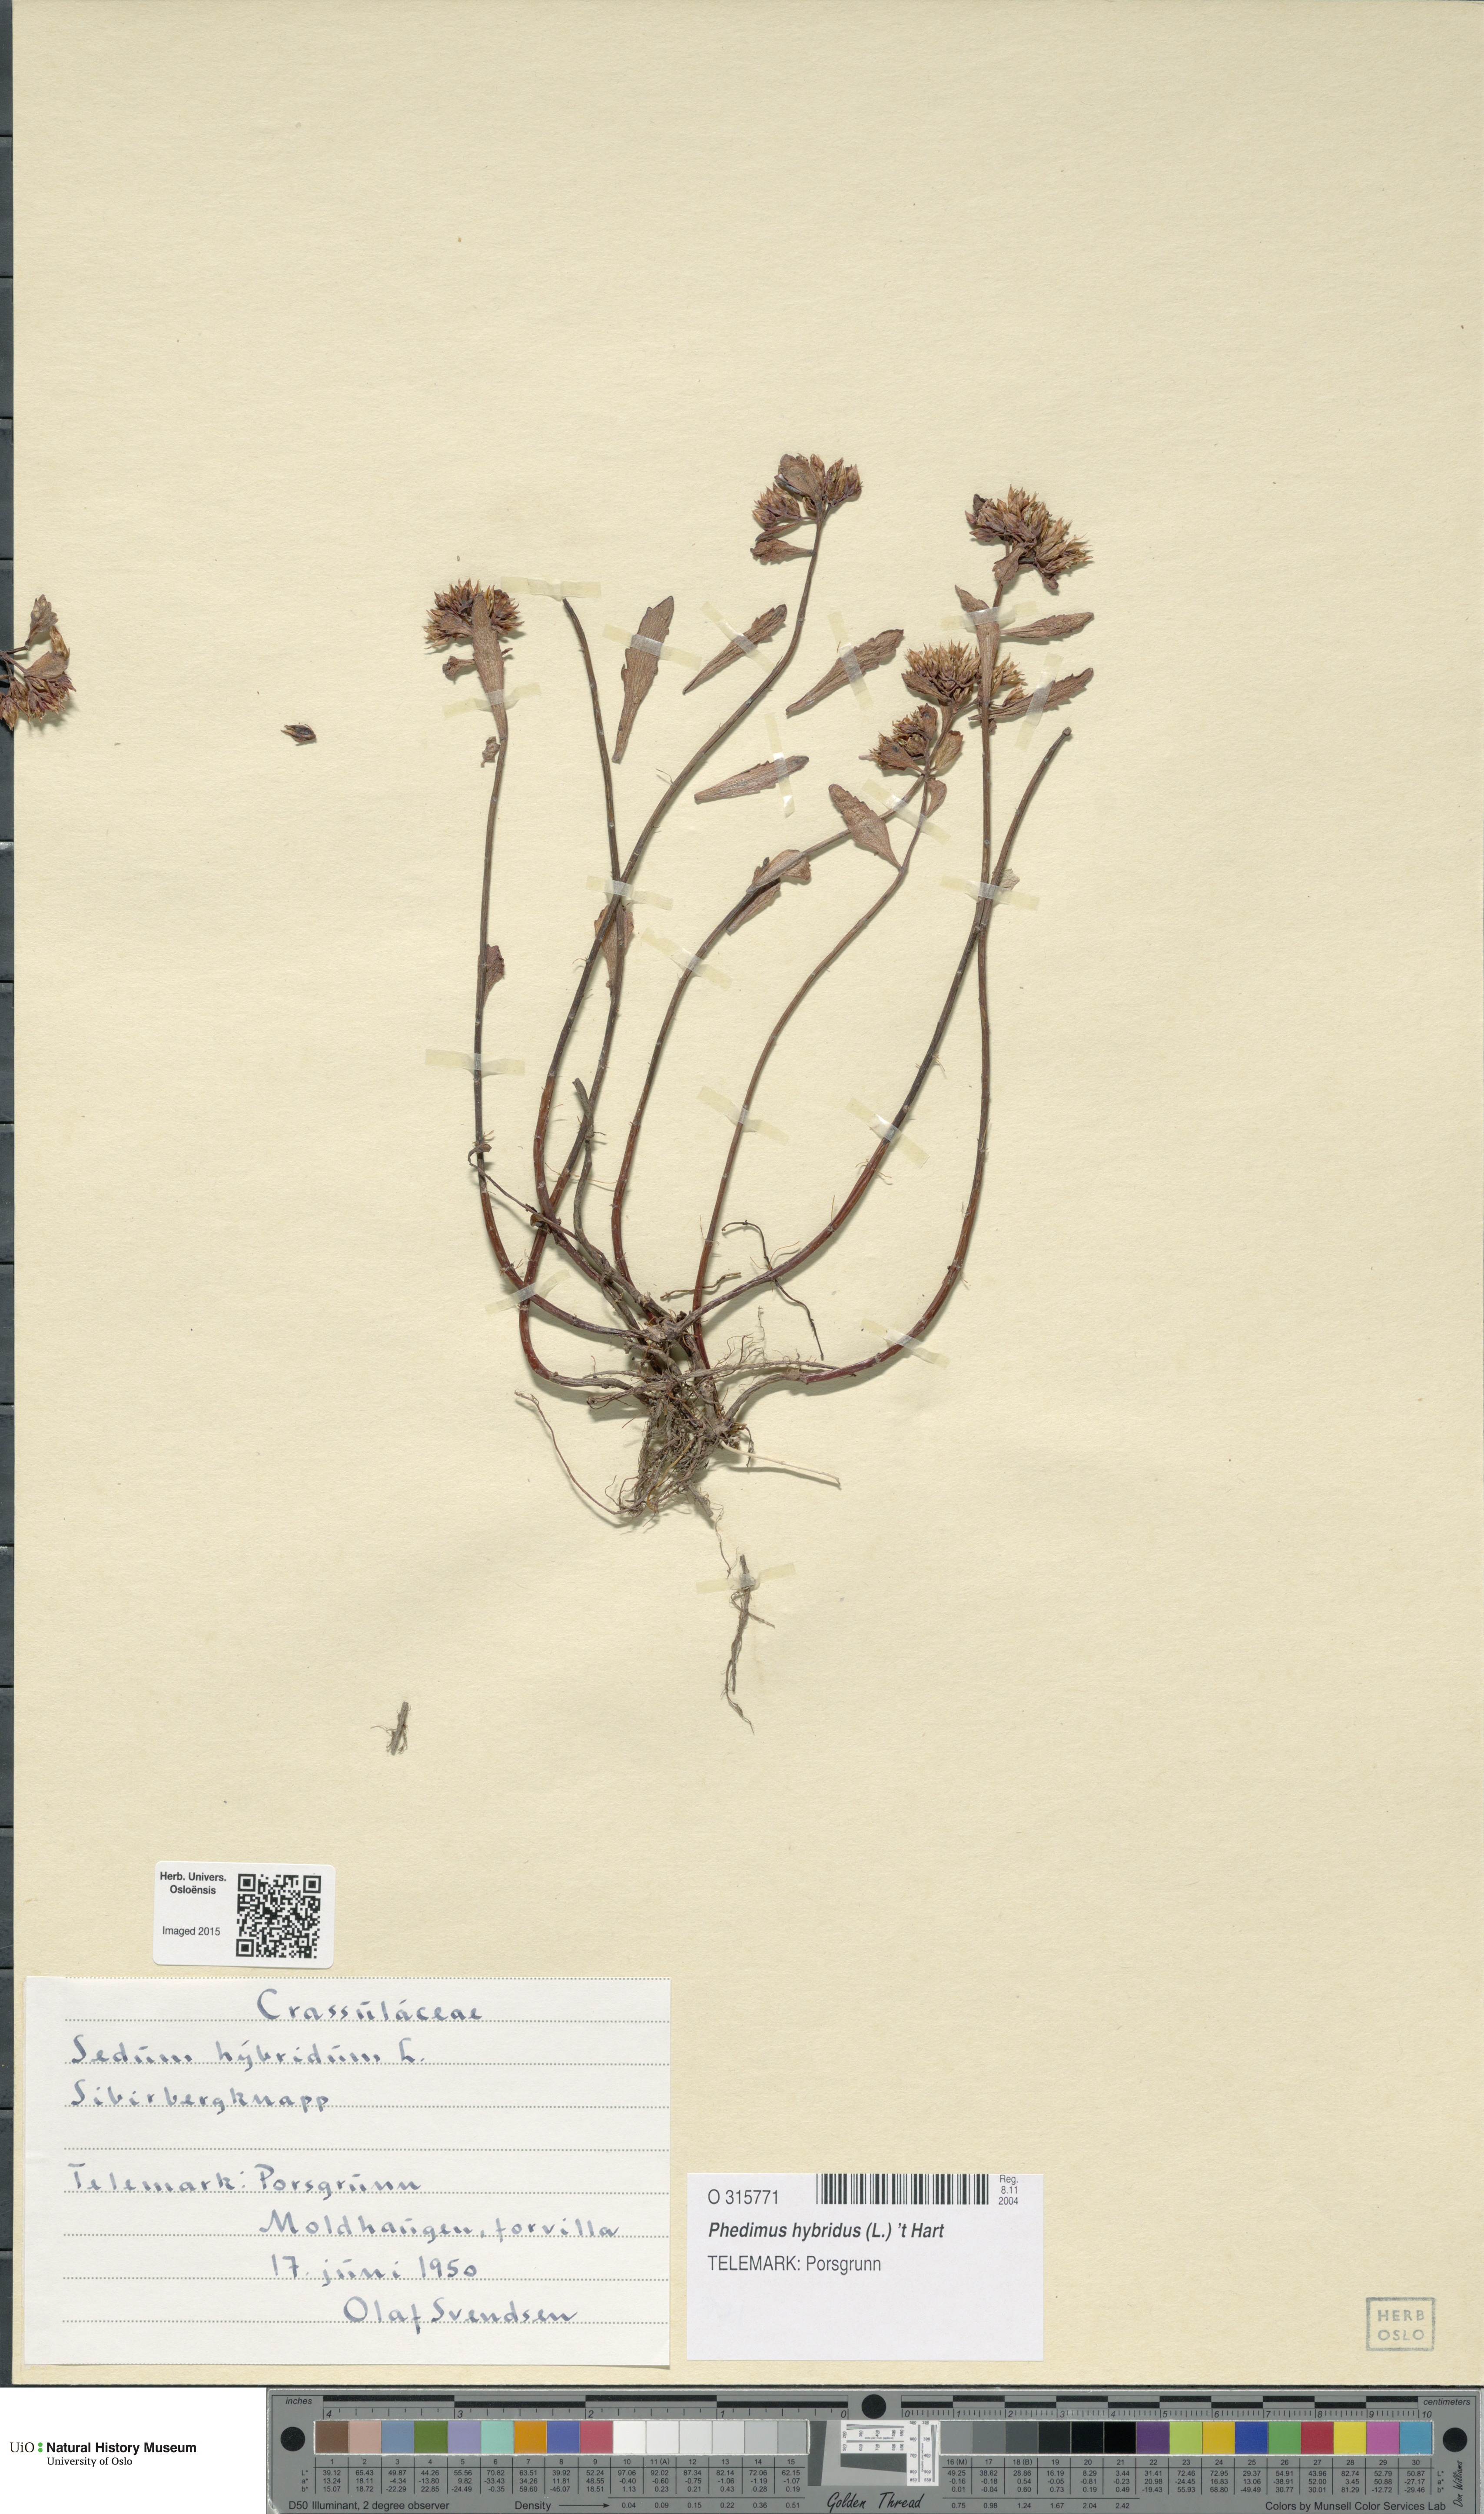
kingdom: Plantae
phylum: Tracheophyta
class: Magnoliopsida
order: Saxifragales
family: Crassulaceae
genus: Phedimus
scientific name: Phedimus hybridus
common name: Hybrid stonecrop
